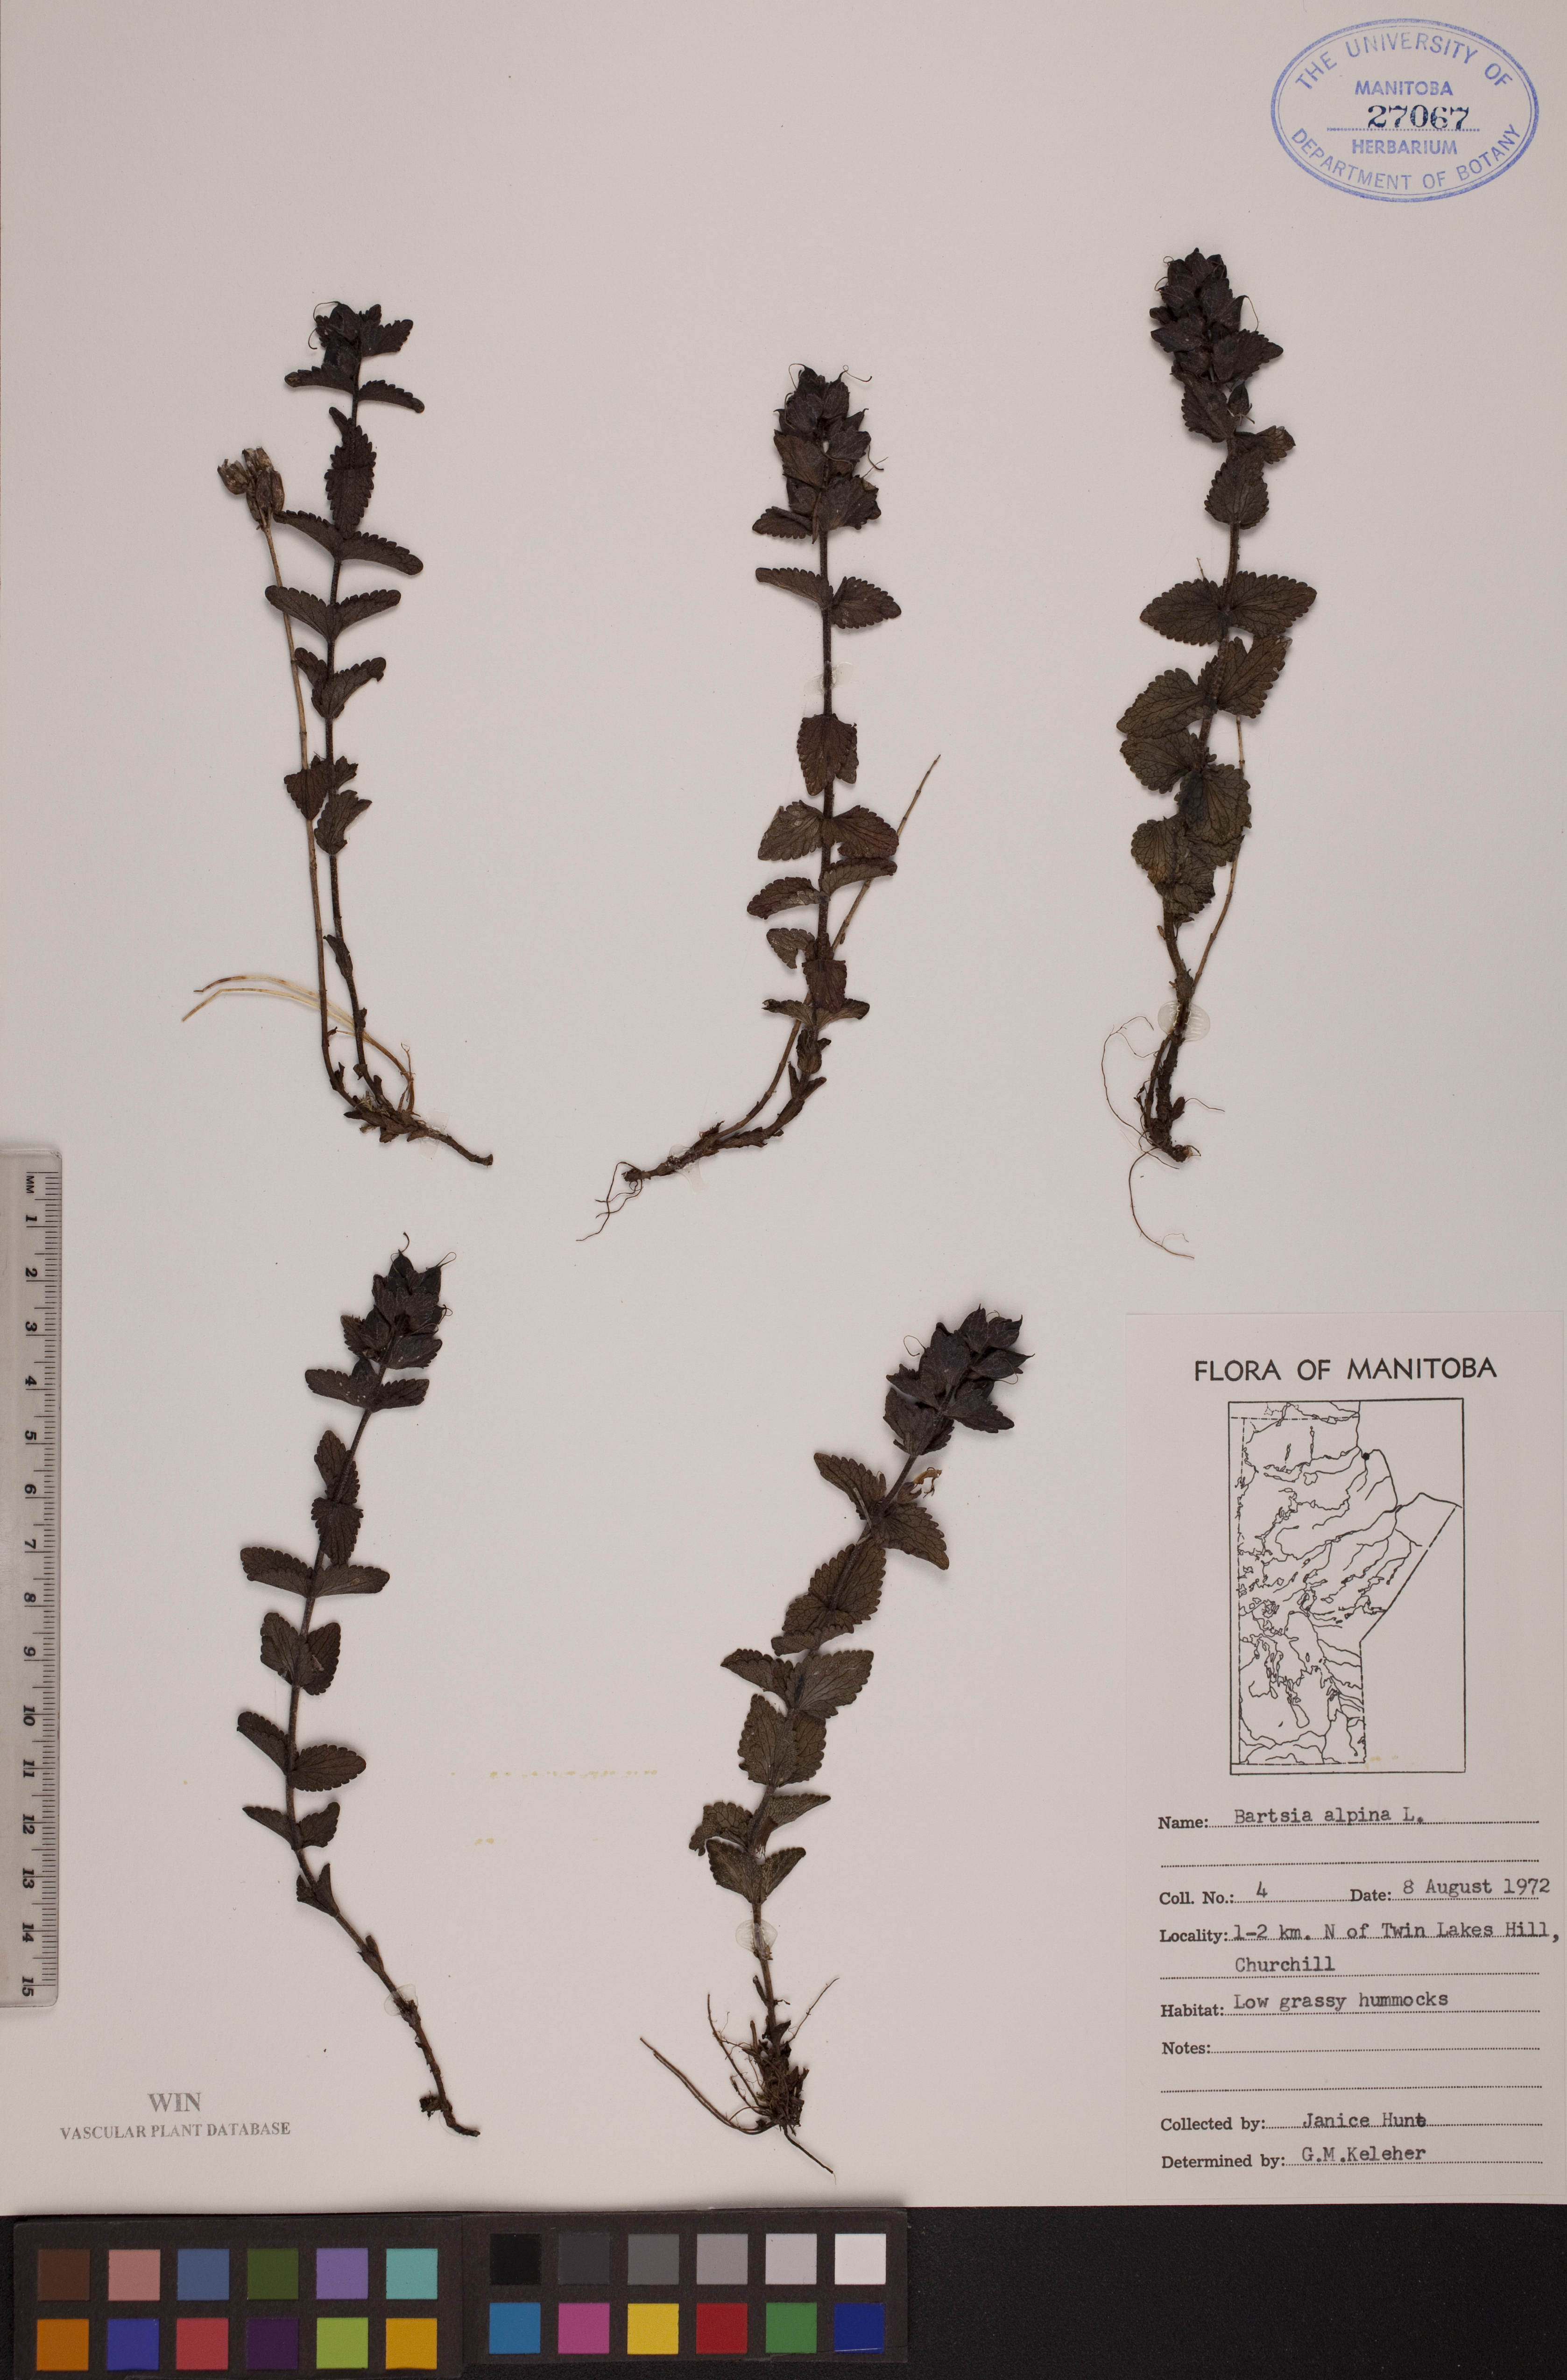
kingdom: Plantae
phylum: Tracheophyta
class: Magnoliopsida
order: Lamiales
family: Orobanchaceae
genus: Bartsia
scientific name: Bartsia alpina
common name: Alpine bartsia
